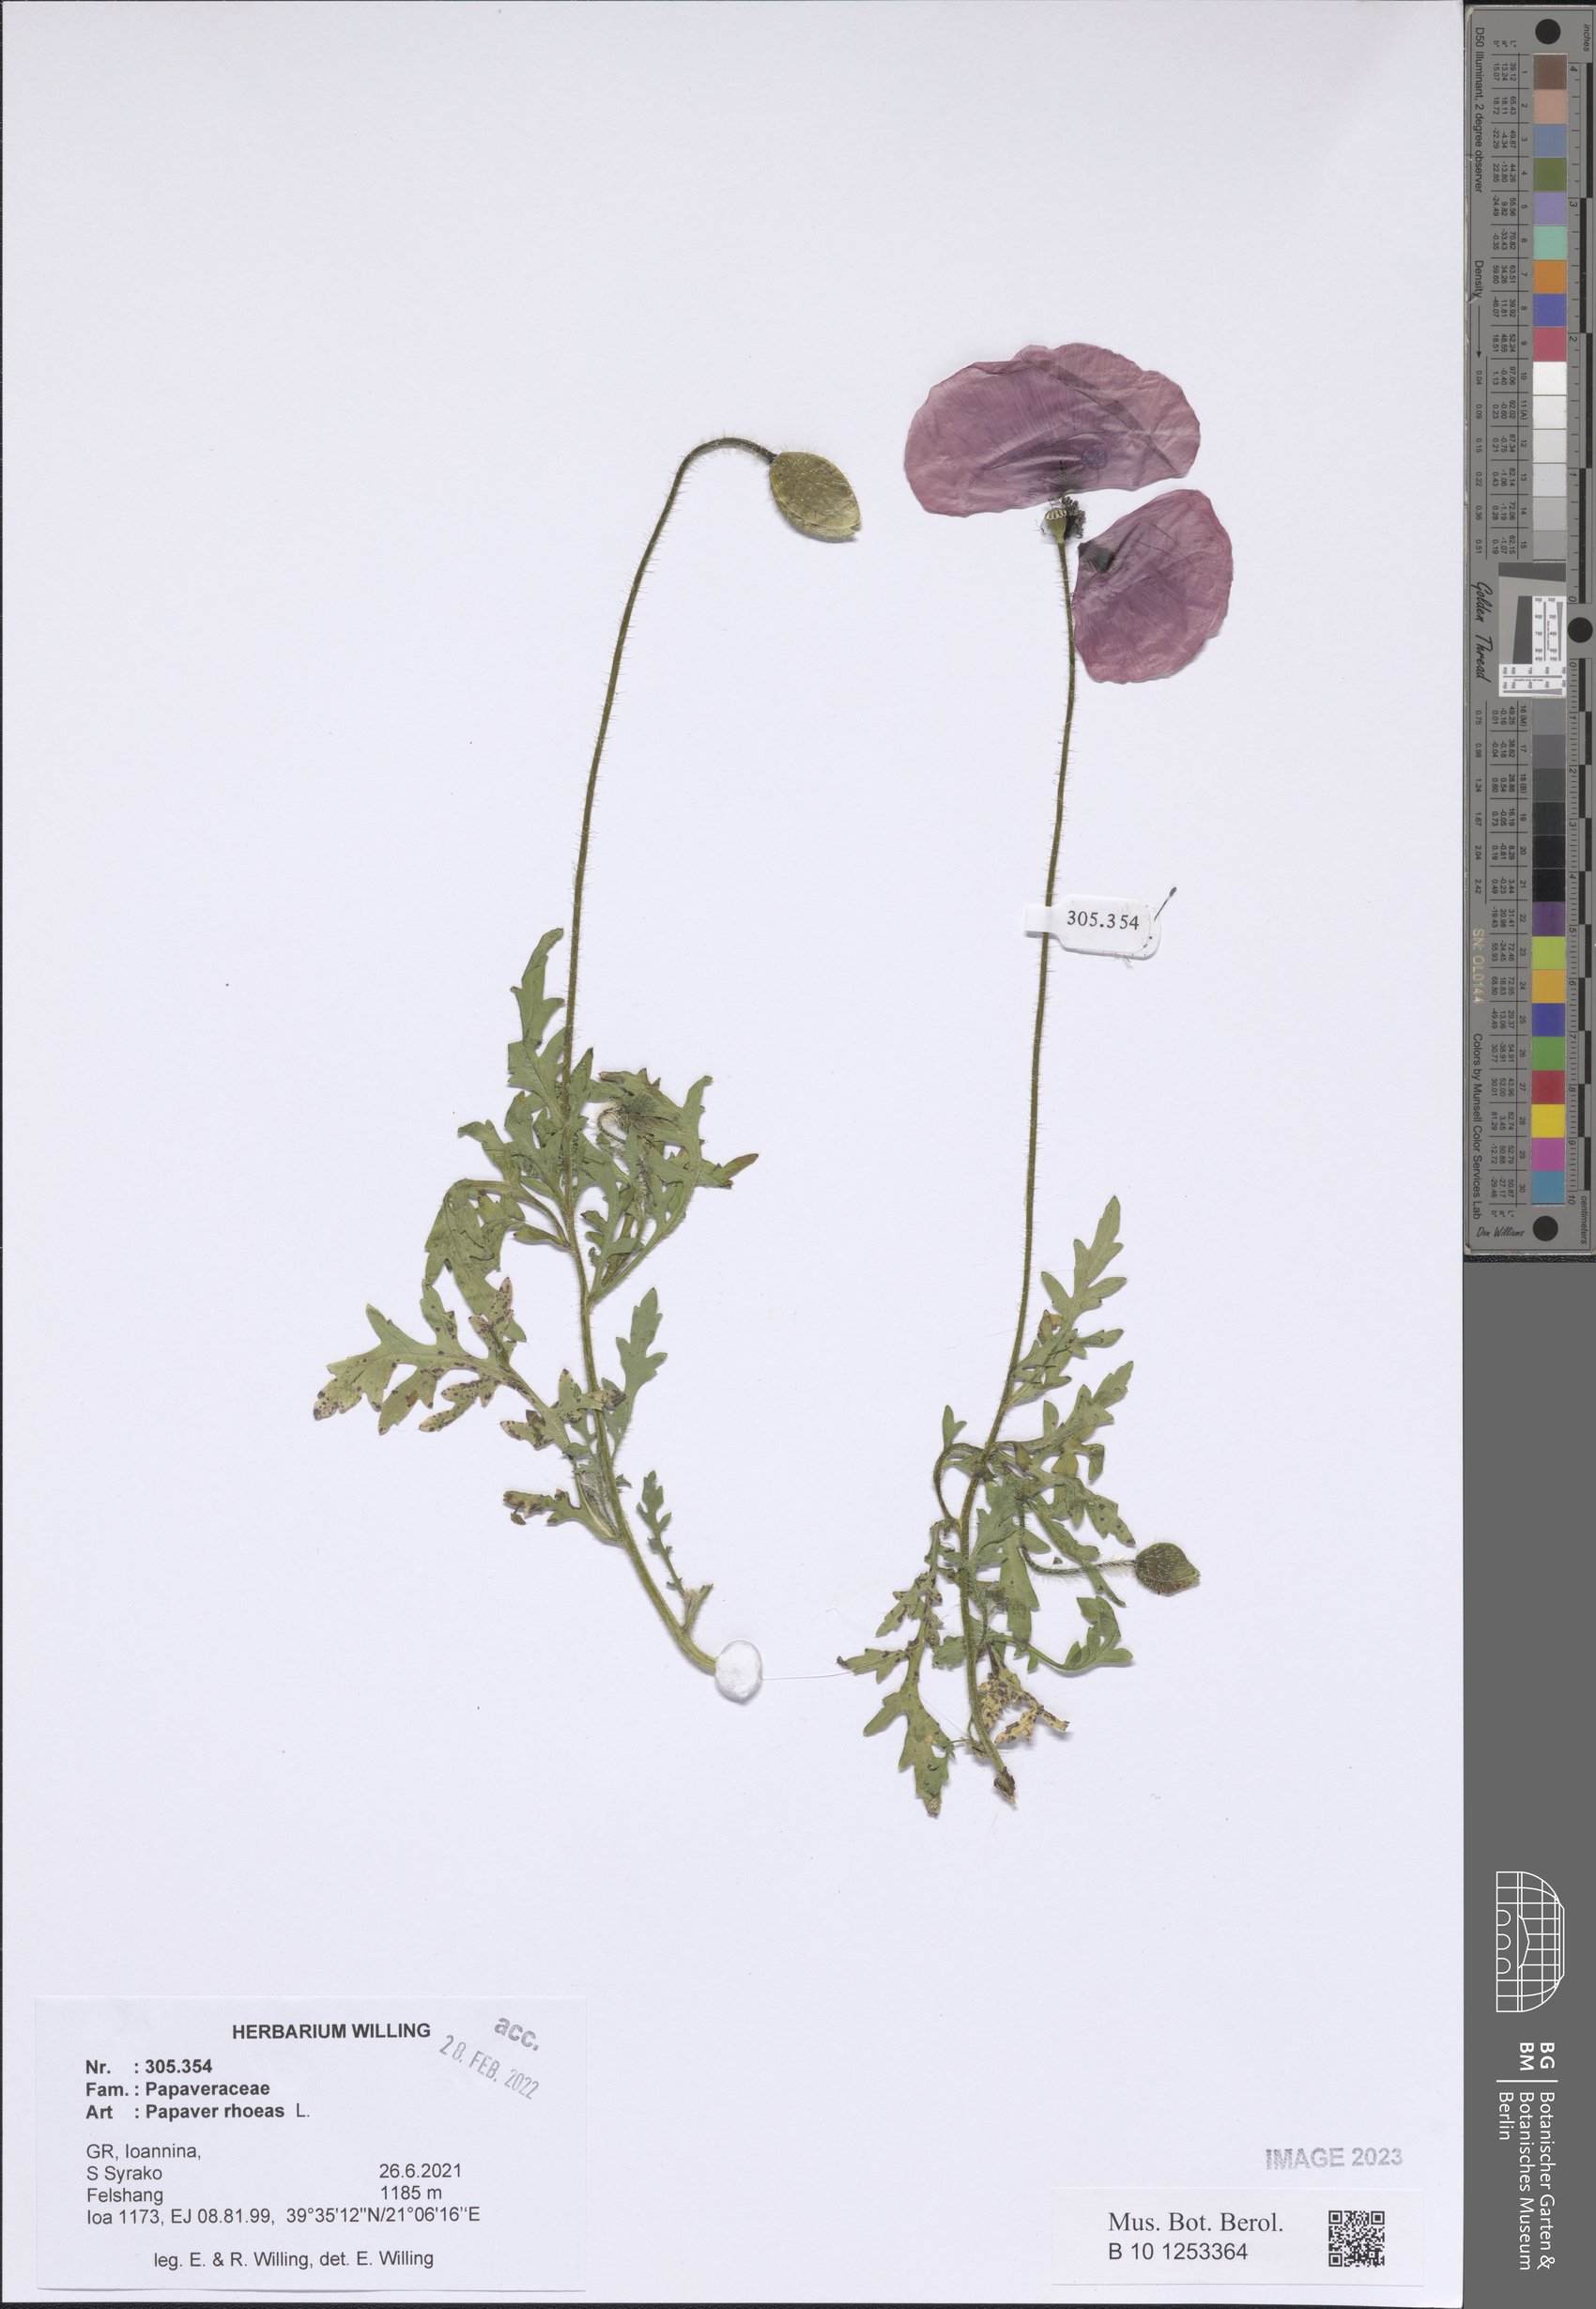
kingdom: Plantae
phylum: Tracheophyta
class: Magnoliopsida
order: Ranunculales
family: Papaveraceae
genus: Papaver
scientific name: Papaver rhoeas
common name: Corn poppy
